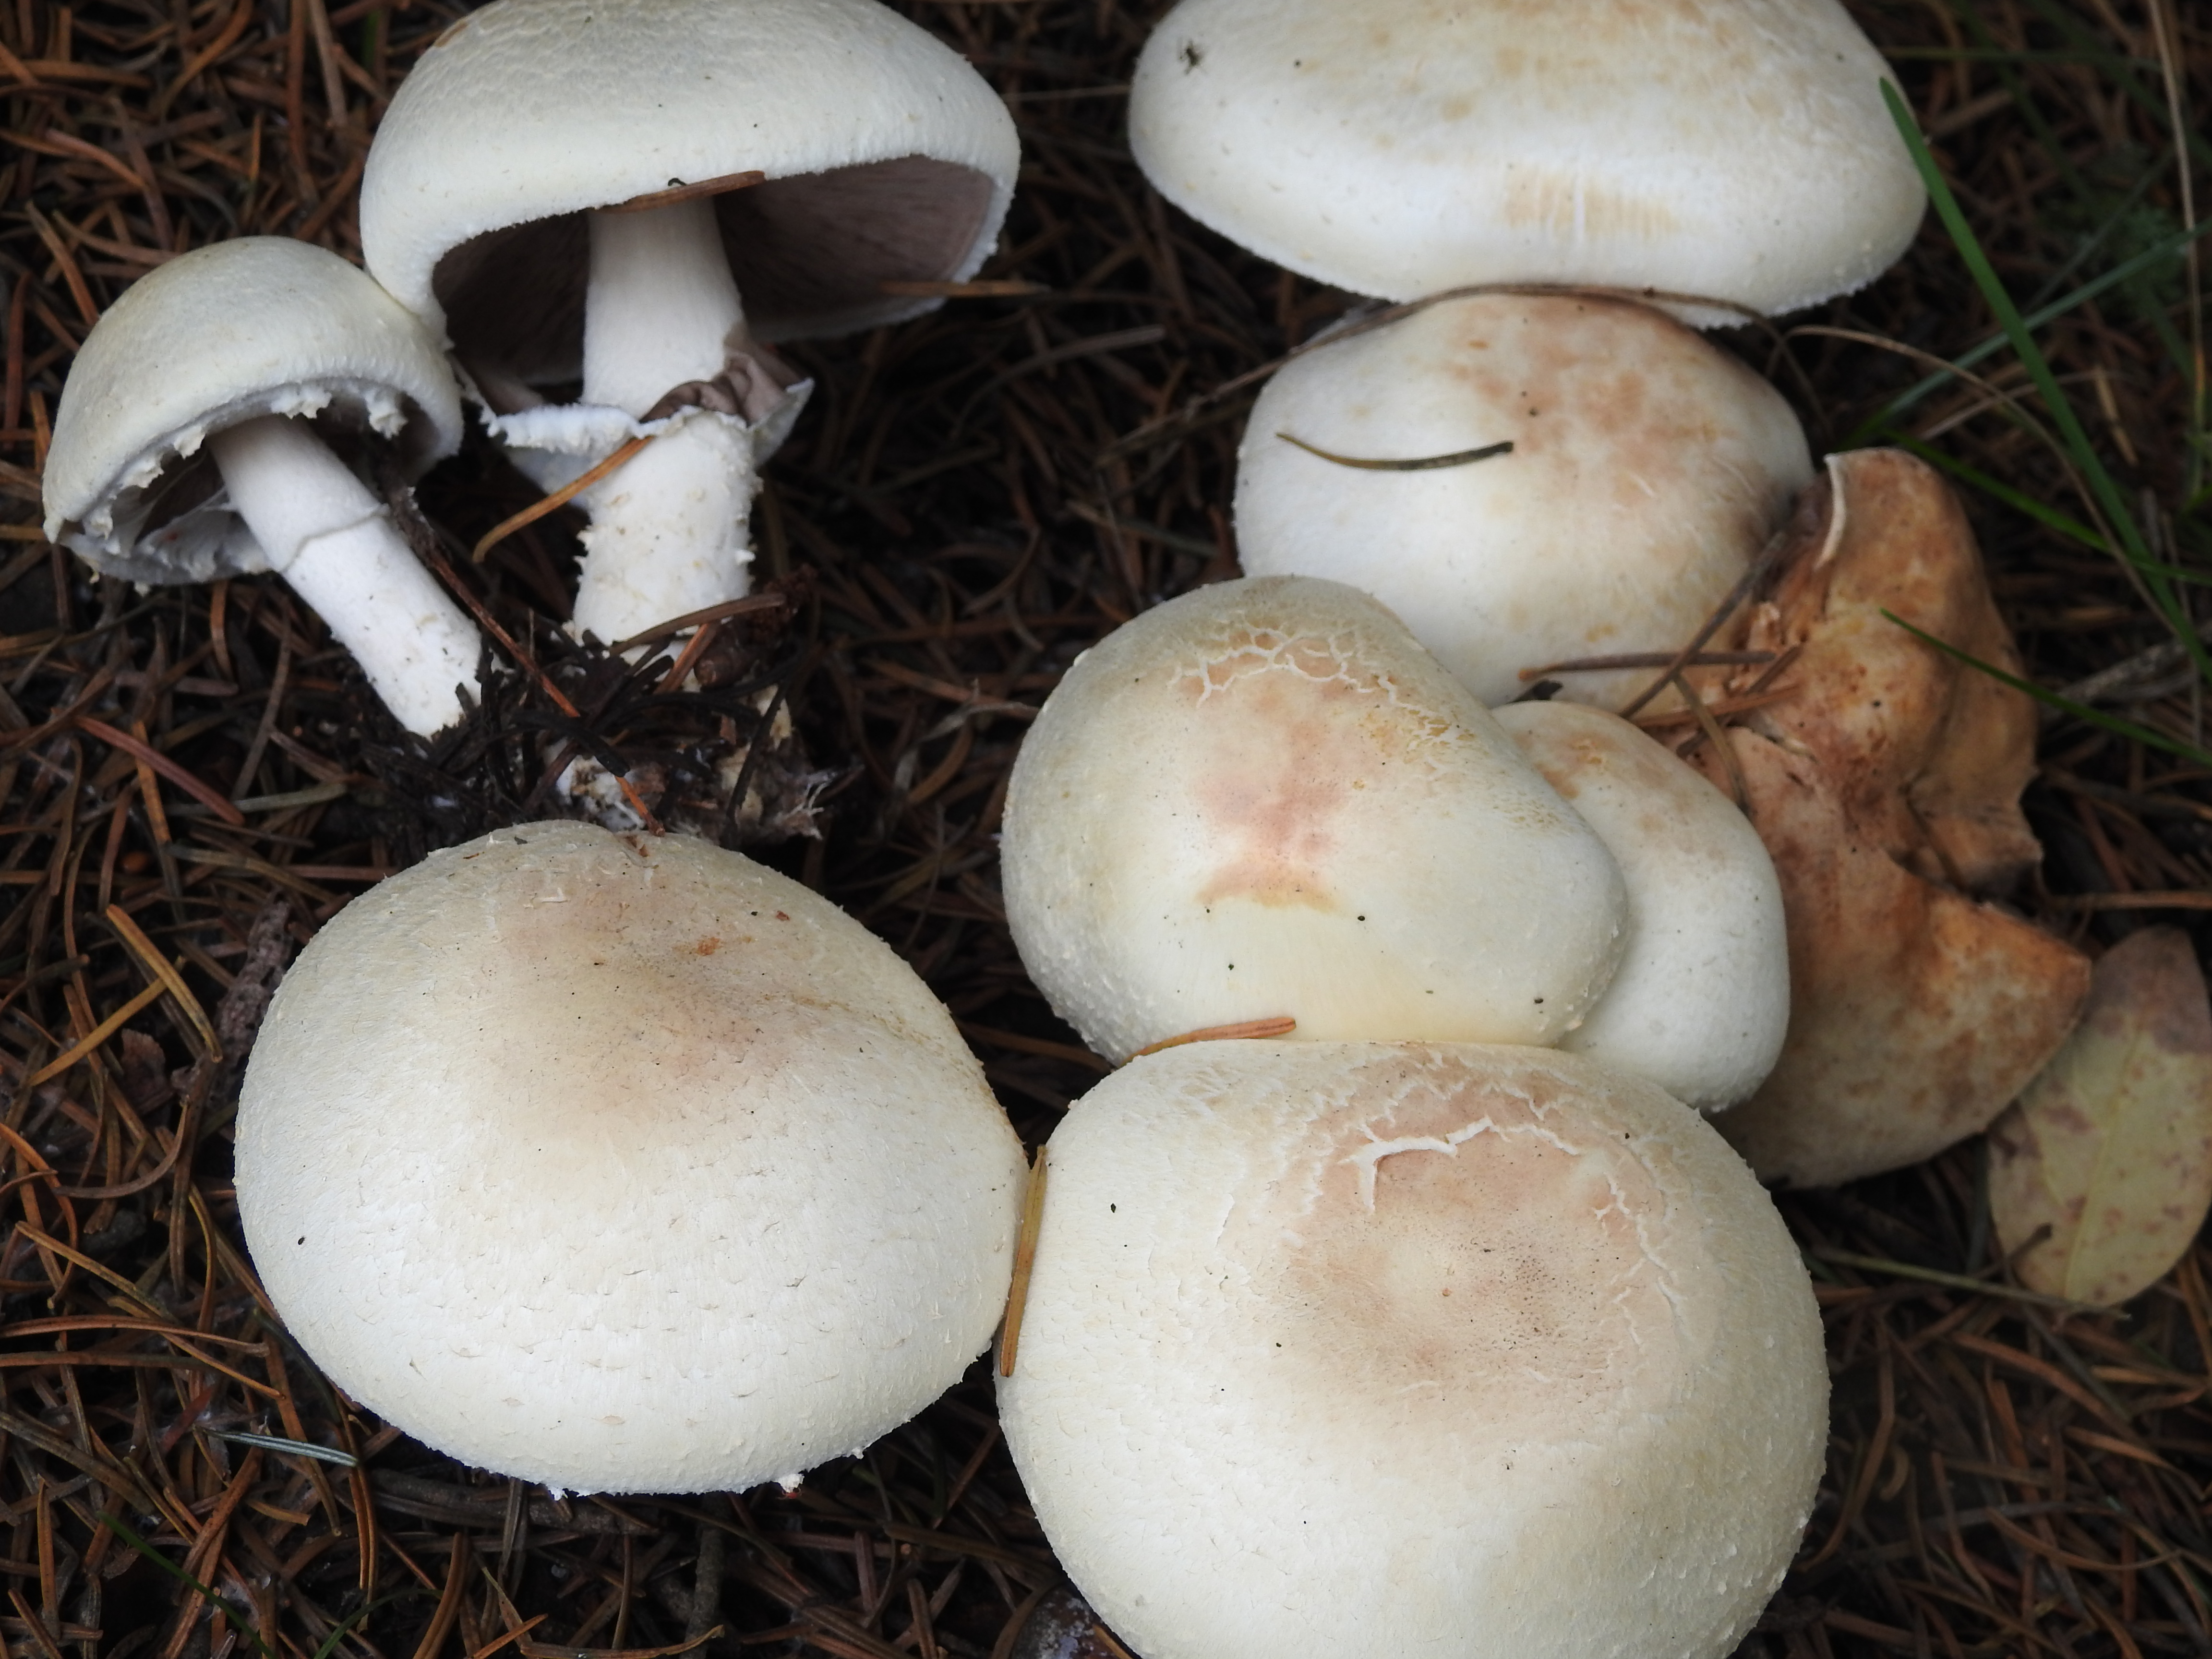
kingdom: Fungi
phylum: Basidiomycota
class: Agaricomycetes
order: Agaricales
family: Agaricaceae
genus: Agaricus
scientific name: Agaricus sylvicola
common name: Wood mushroom
